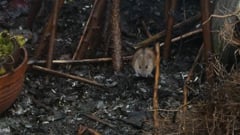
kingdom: Animalia
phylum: Chordata
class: Mammalia
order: Rodentia
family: Muridae
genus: Apodemus
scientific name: Apodemus agrarius
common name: Striped field mouse
